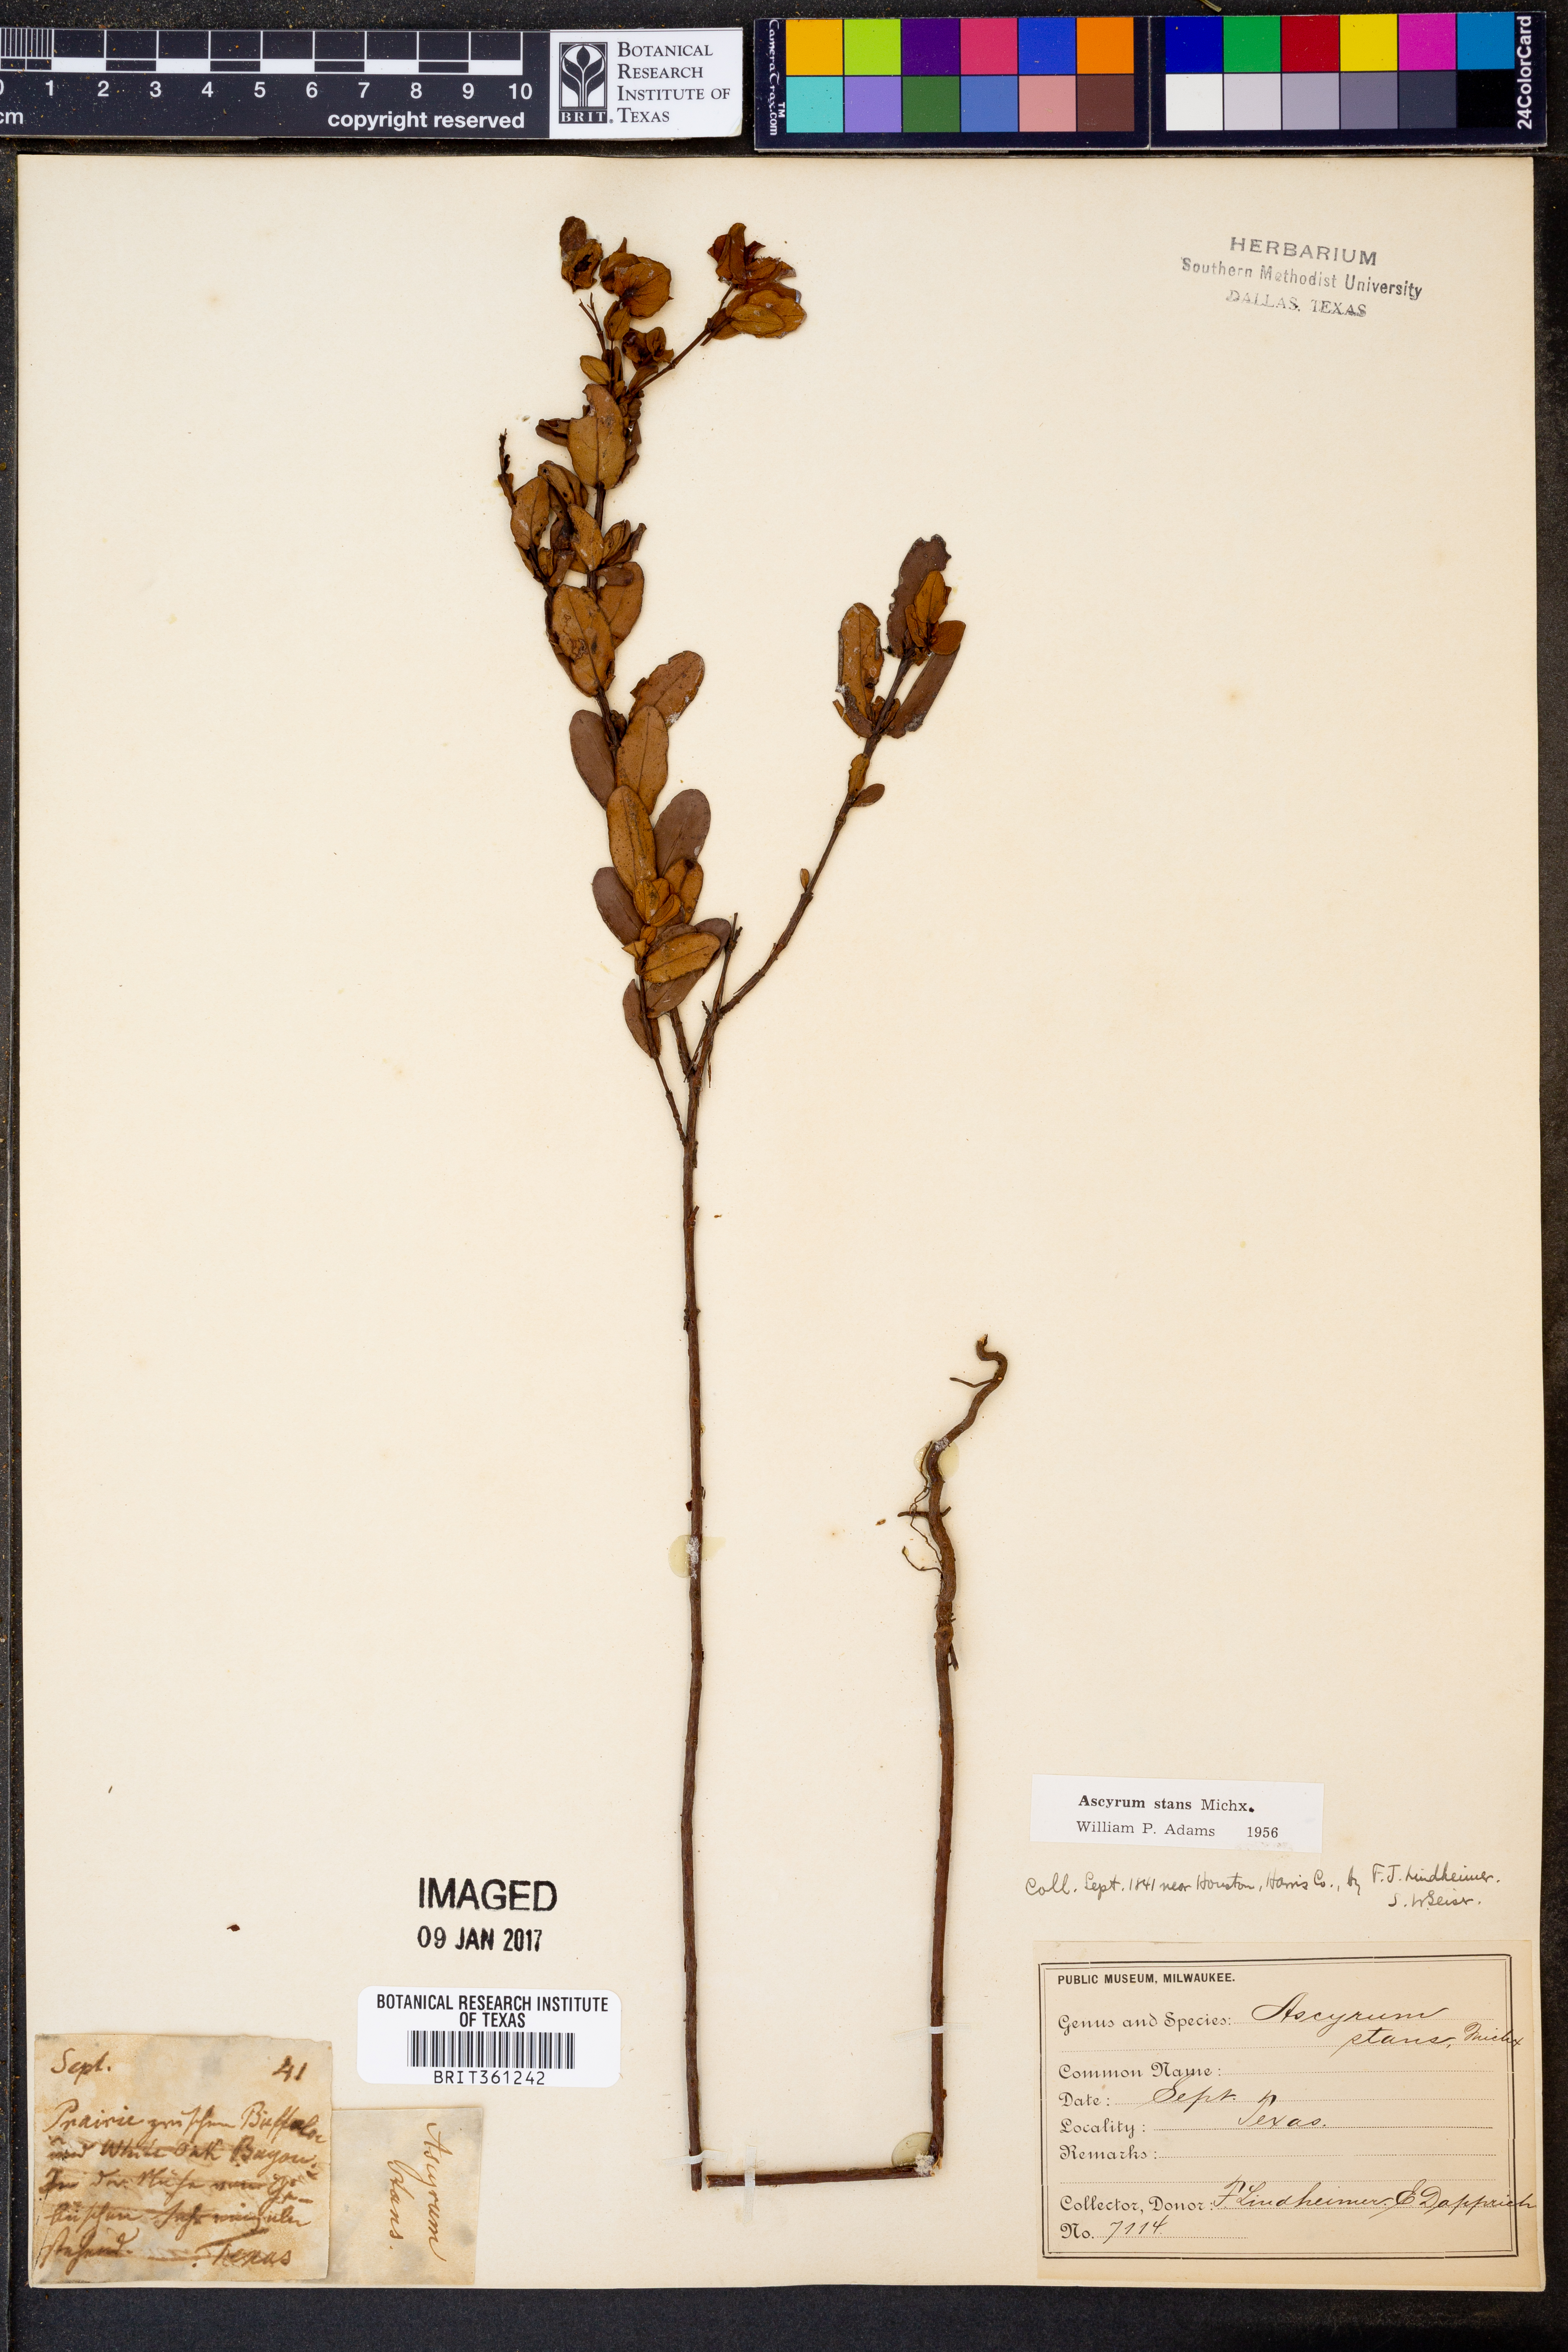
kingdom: Plantae
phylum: Tracheophyta
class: Magnoliopsida
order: Malpighiales
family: Hypericaceae
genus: Hypericum
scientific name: Hypericum crux-andreae
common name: St.-peter's-wort
